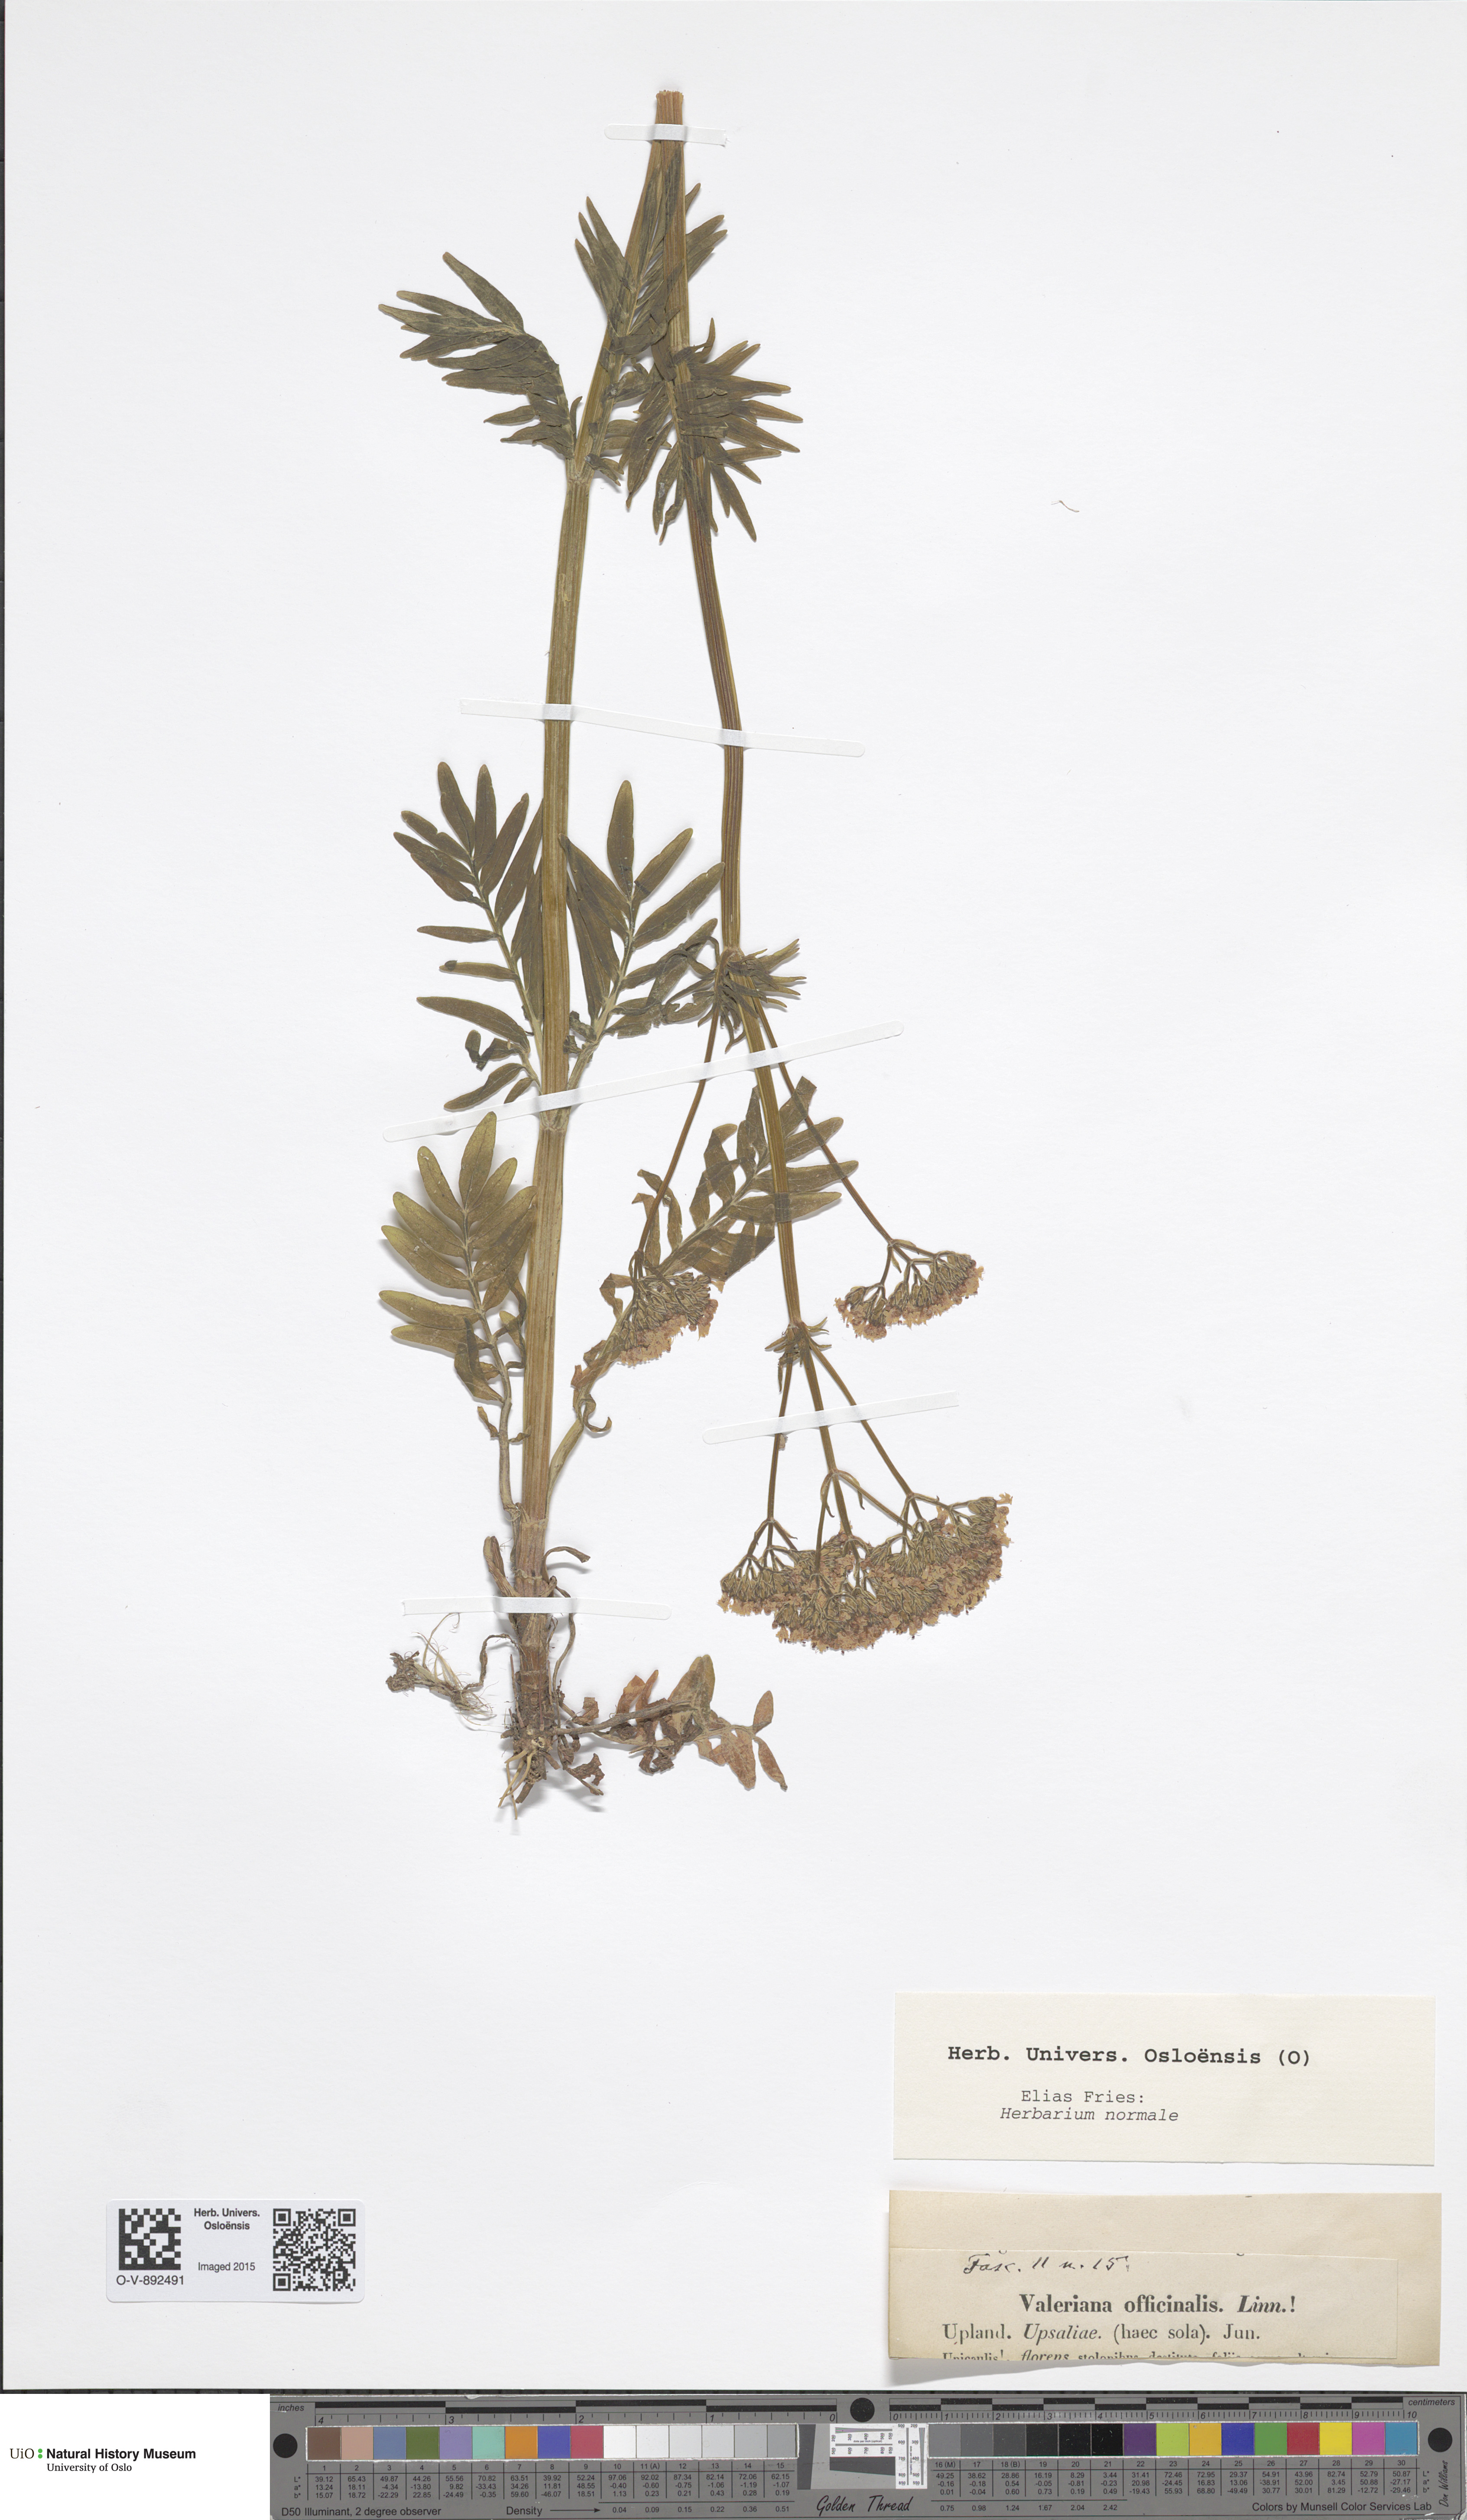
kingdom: Plantae
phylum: Tracheophyta
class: Magnoliopsida
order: Dipsacales
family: Caprifoliaceae
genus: Valeriana
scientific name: Valeriana officinalis
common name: Common valerian
